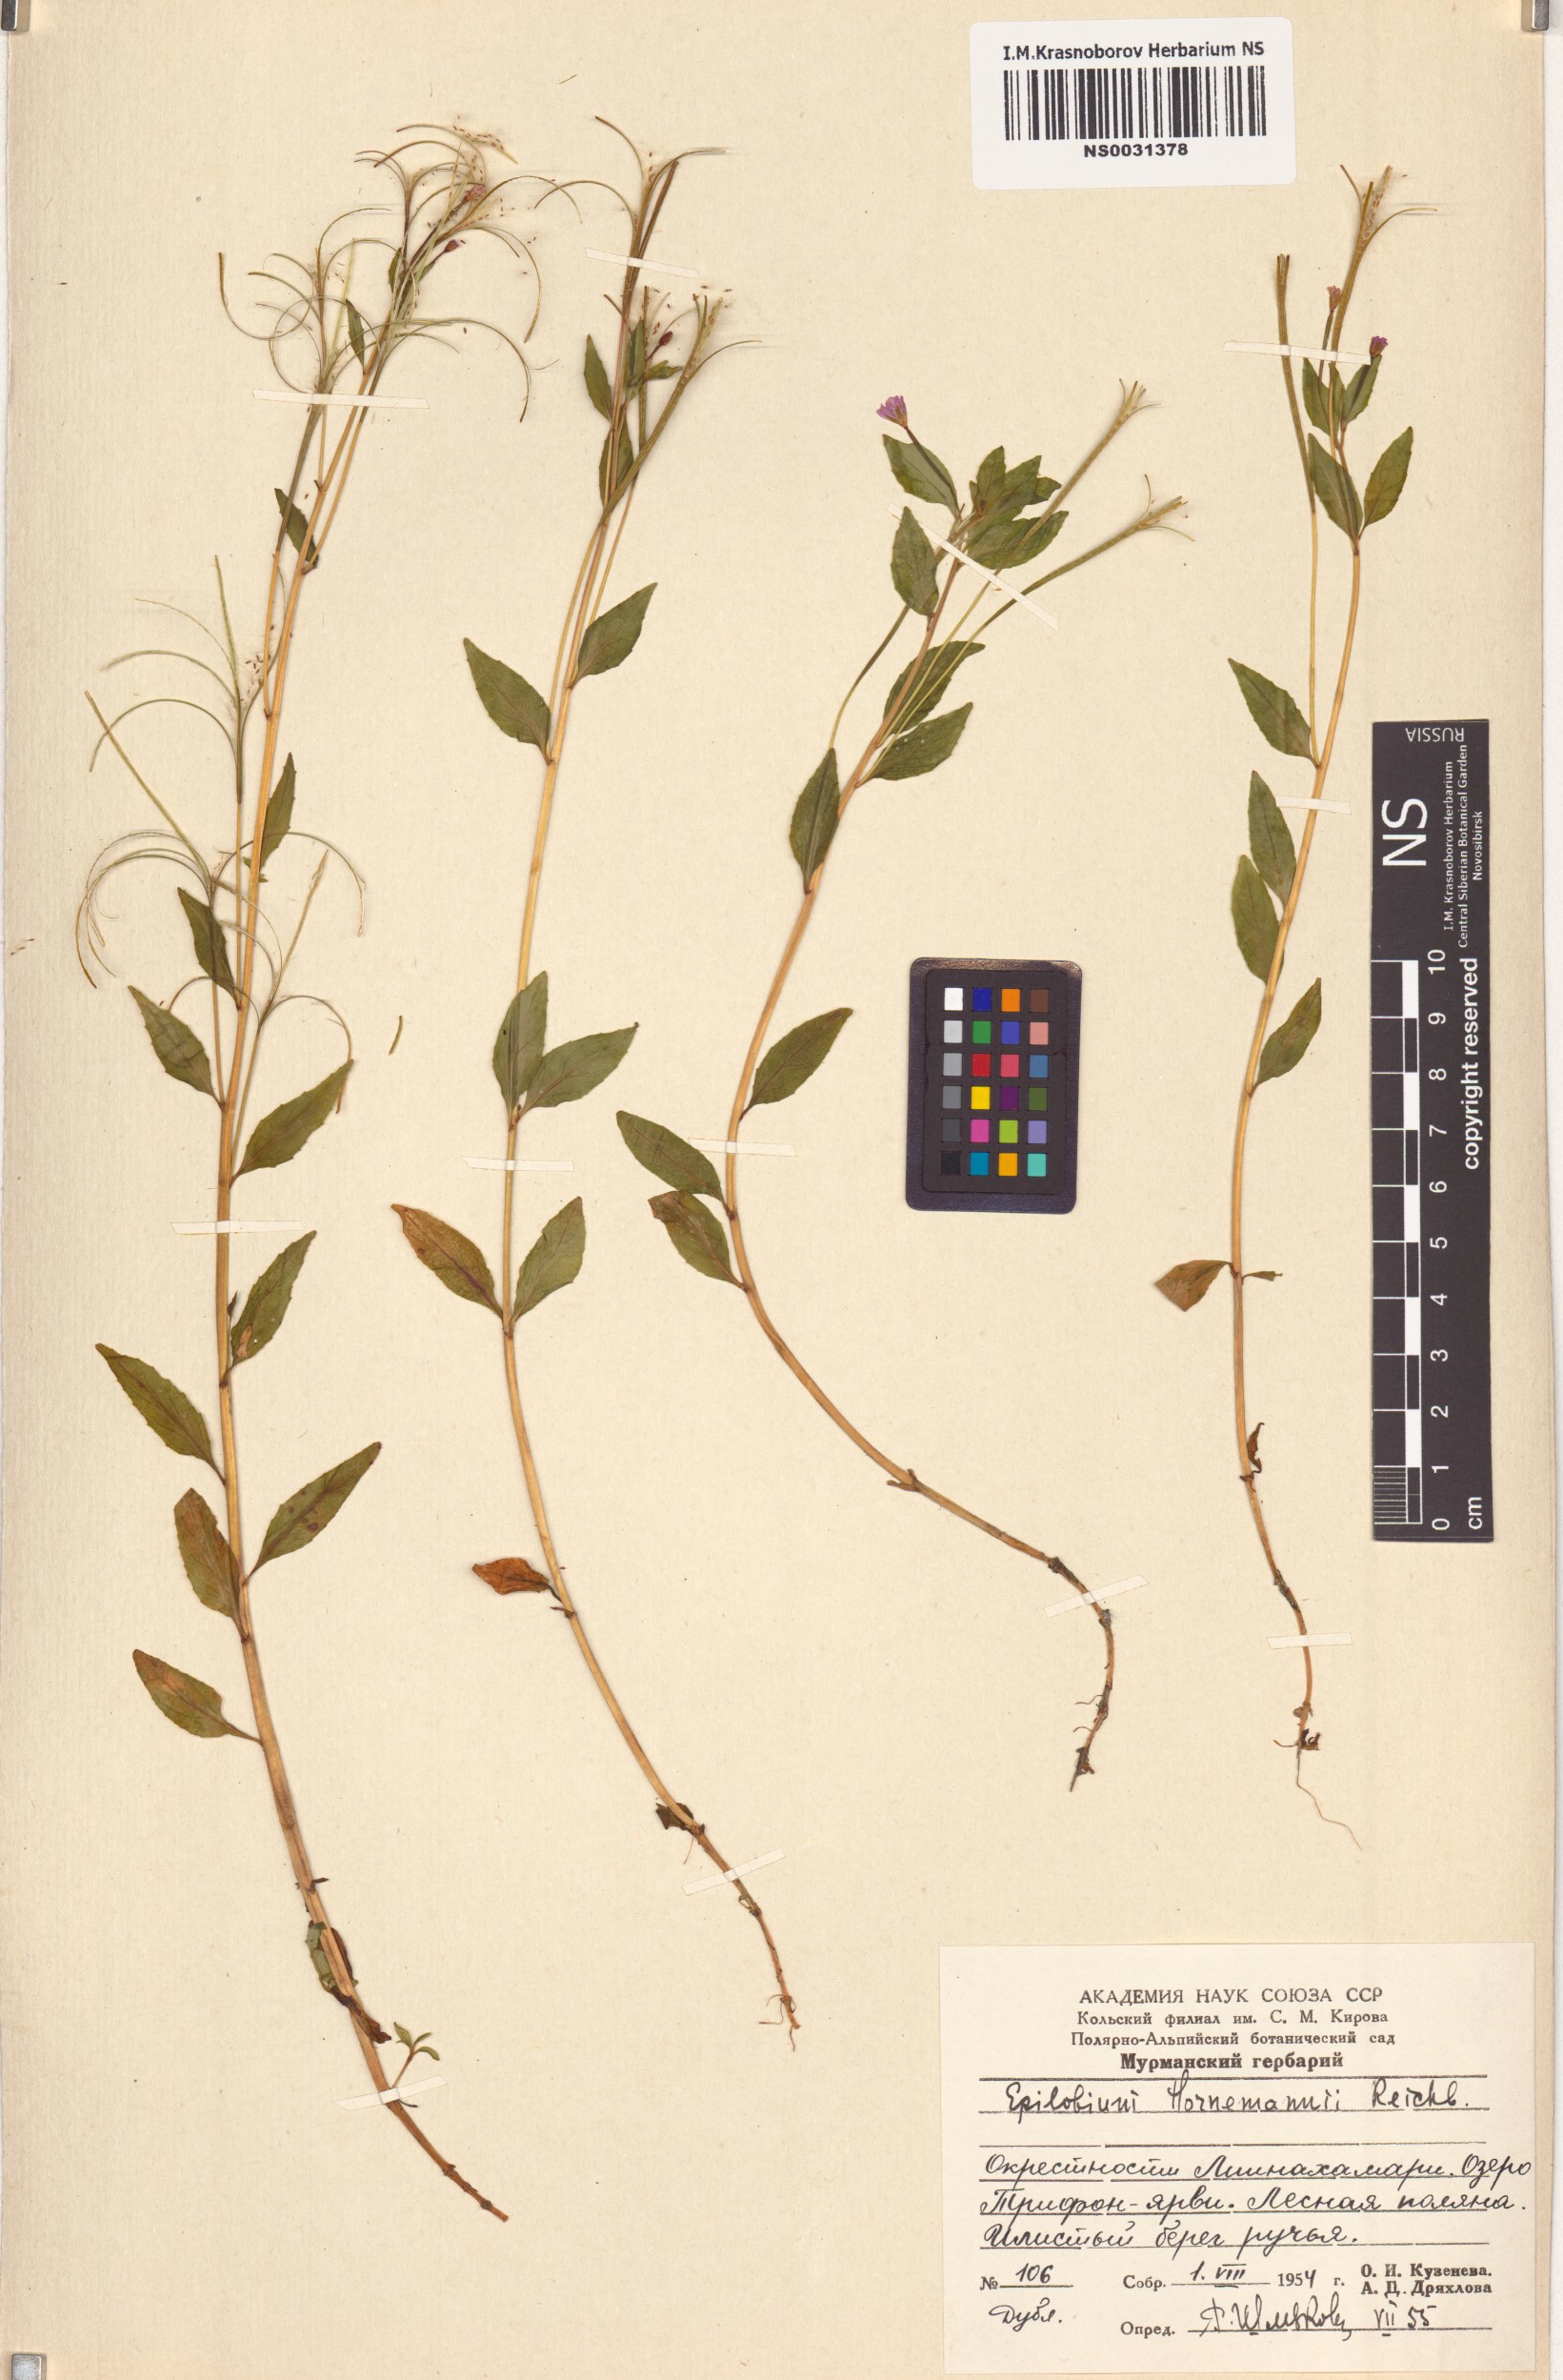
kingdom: Plantae
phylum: Tracheophyta
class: Magnoliopsida
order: Myrtales
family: Onagraceae
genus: Epilobium
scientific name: Epilobium hornemannii
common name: Hornemann's willowherb
